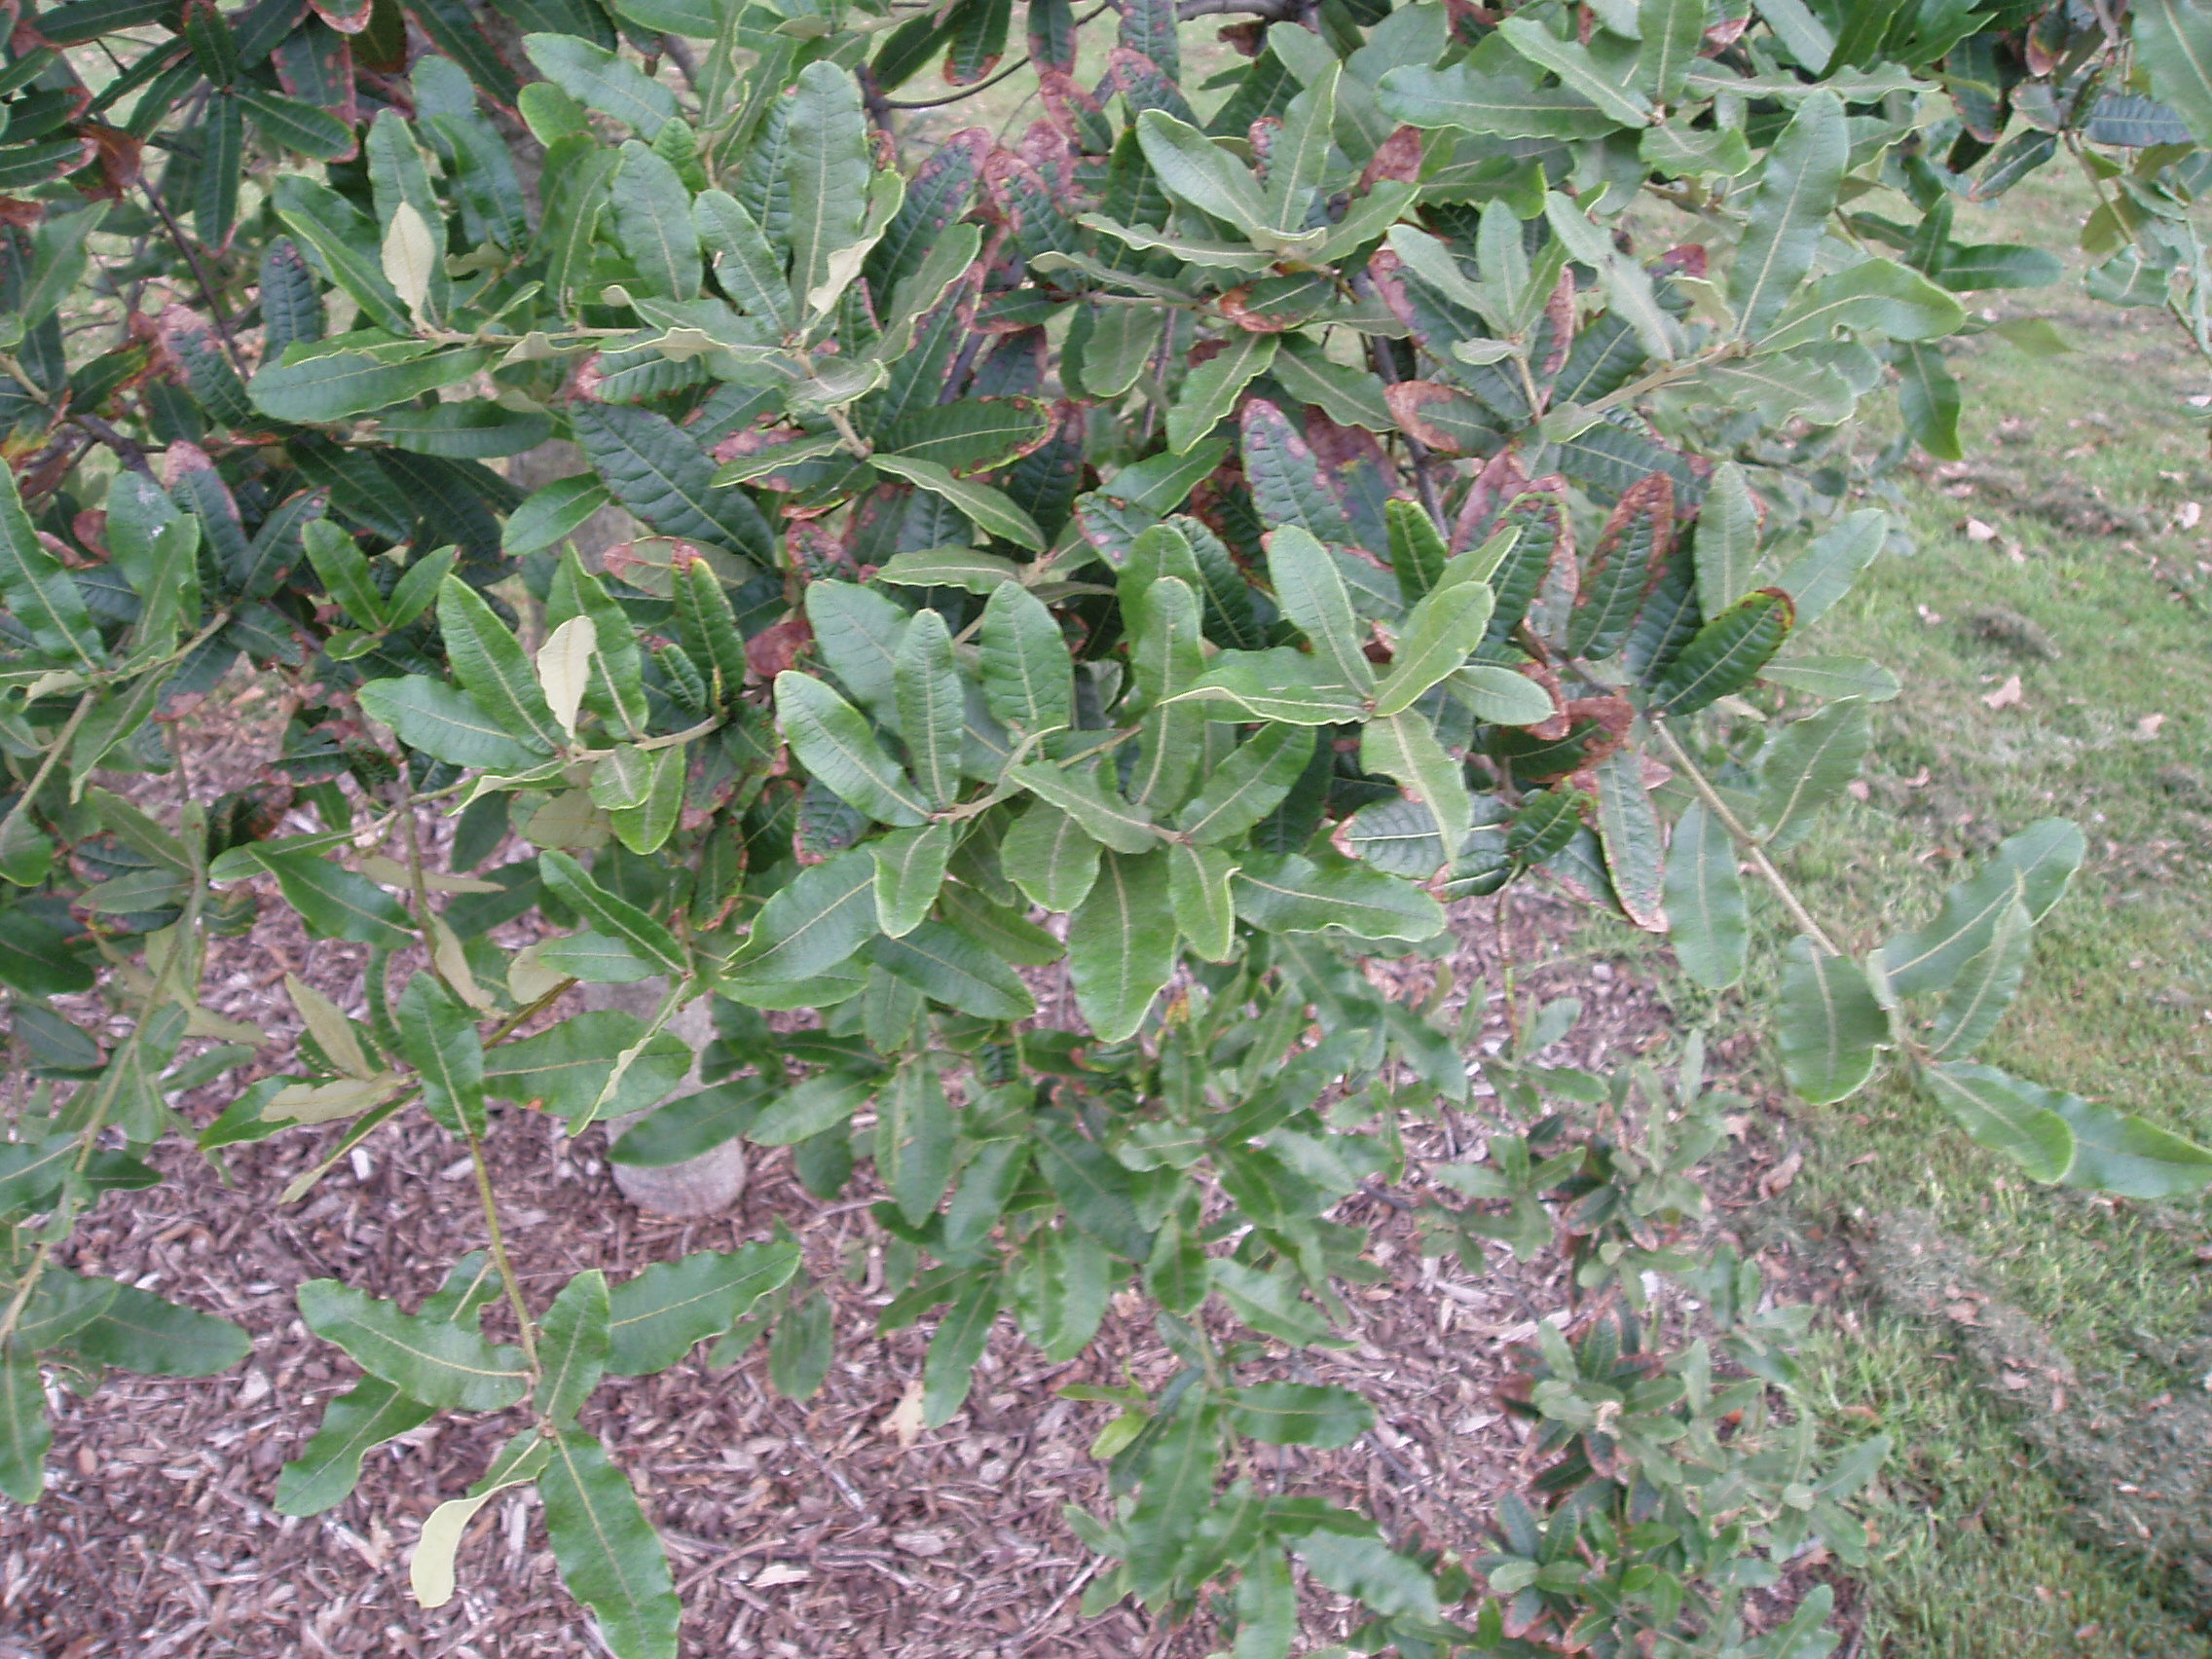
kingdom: Plantae
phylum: Tracheophyta
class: Magnoliopsida
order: Fagales
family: Fagaceae
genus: Quercus
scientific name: Quercus crassipes
